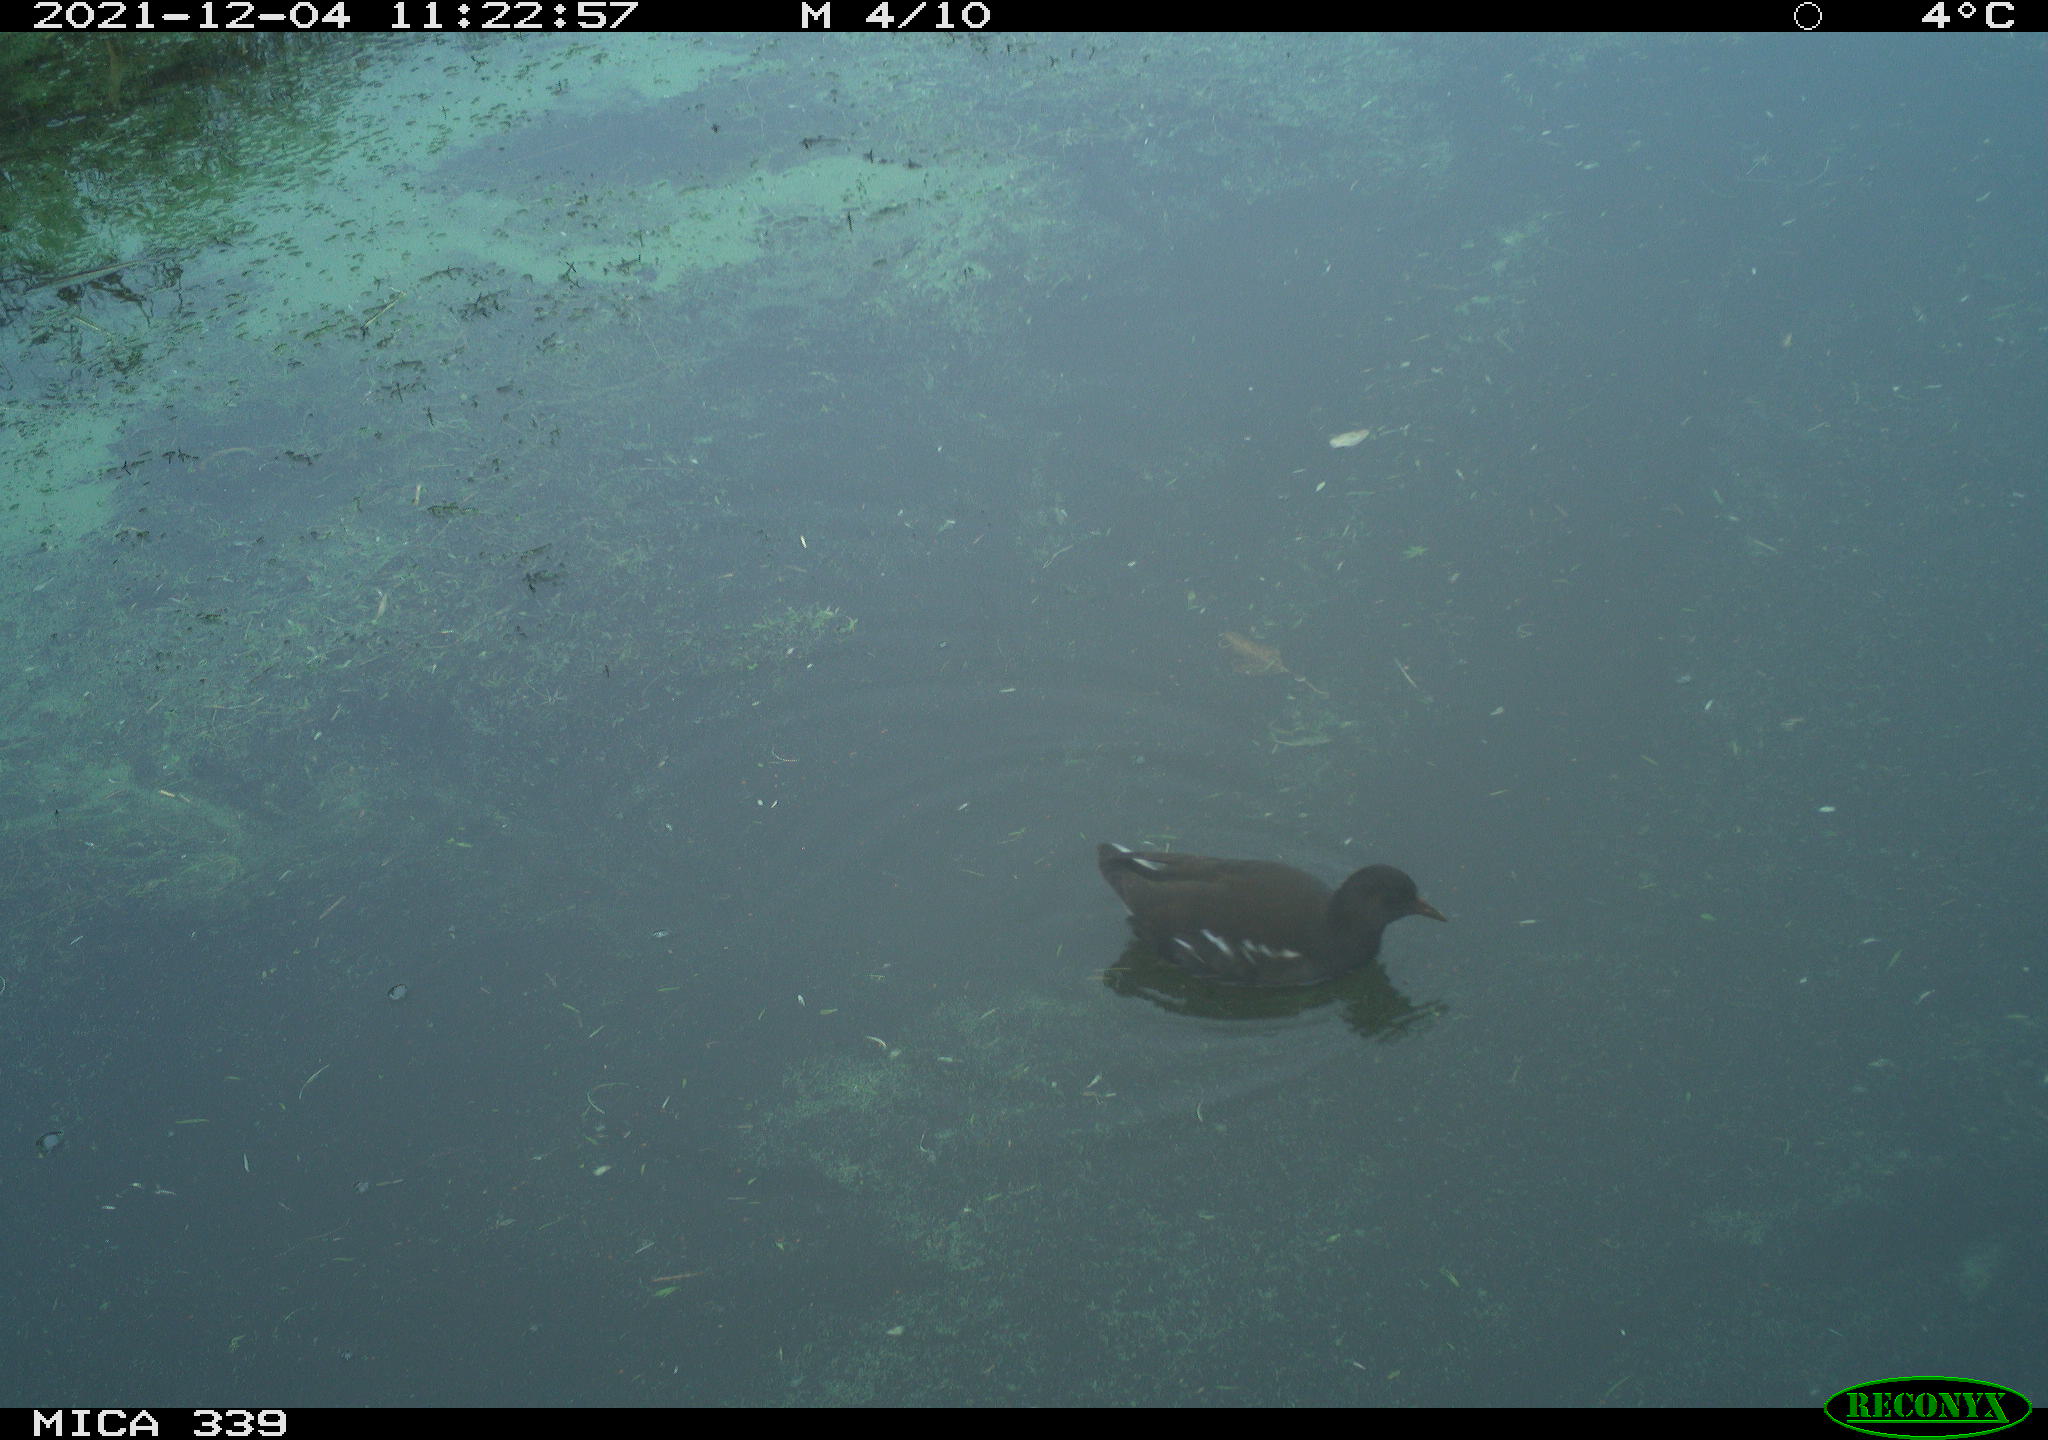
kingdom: Animalia
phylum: Chordata
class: Aves
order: Gruiformes
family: Rallidae
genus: Gallinula
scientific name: Gallinula chloropus
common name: Common moorhen
